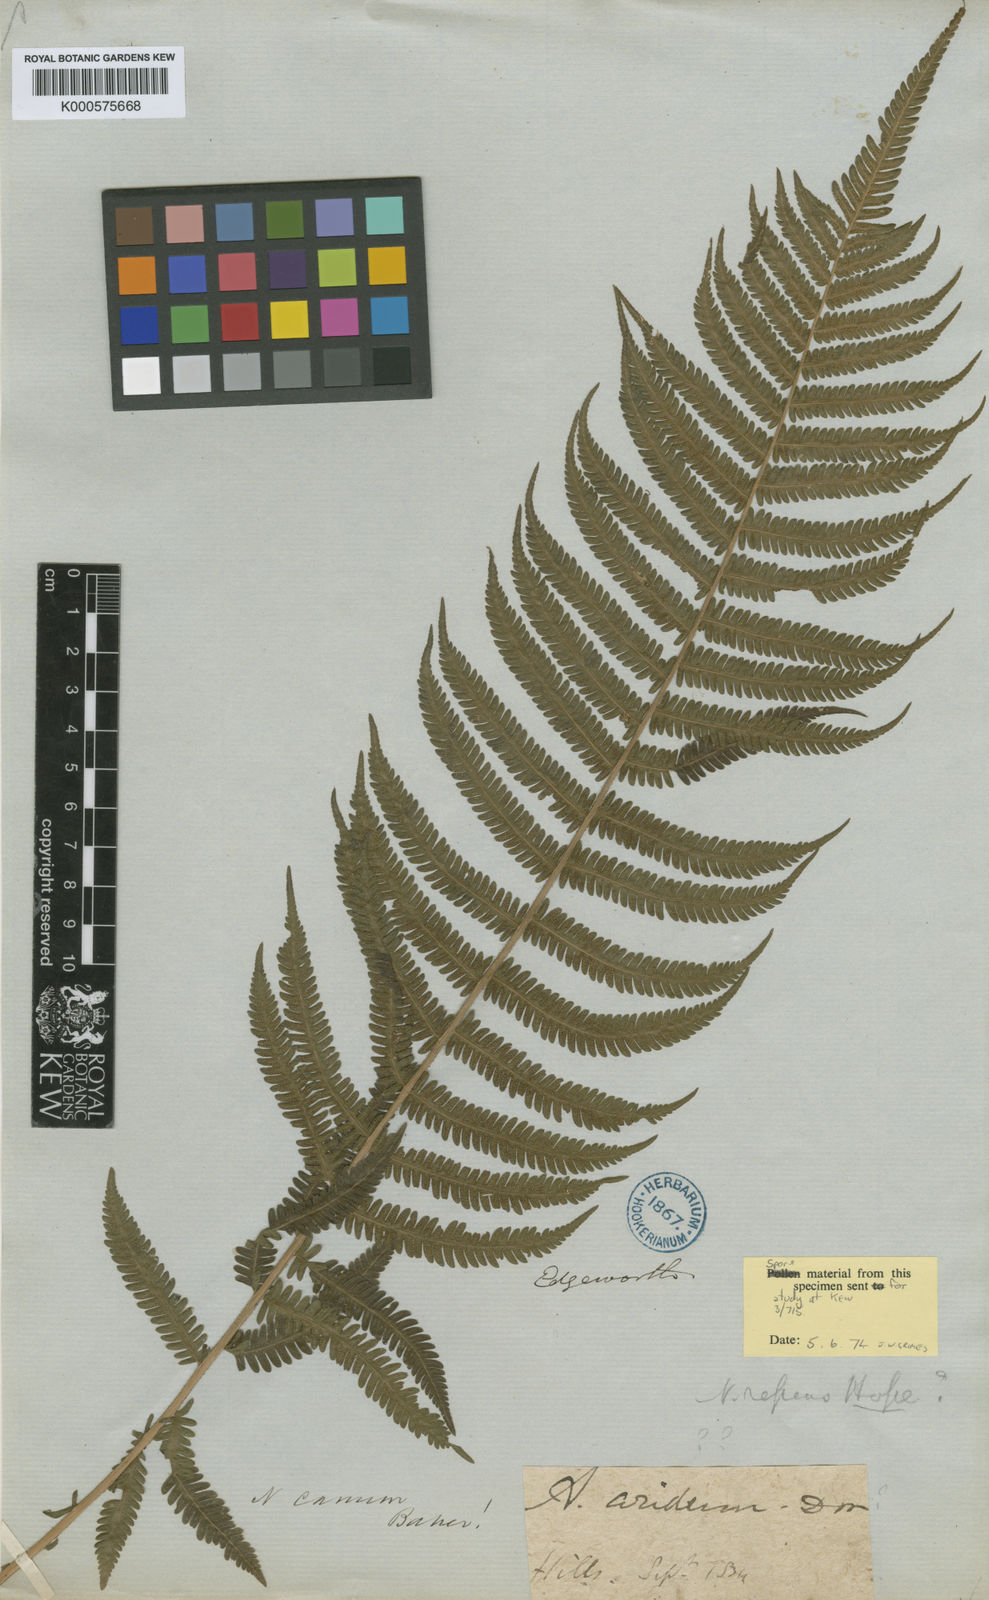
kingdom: Plantae
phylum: Tracheophyta
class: Polypodiopsida
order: Polypodiales
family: Thelypteridaceae
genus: Pseudocyclosorus
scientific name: Pseudocyclosorus canus
